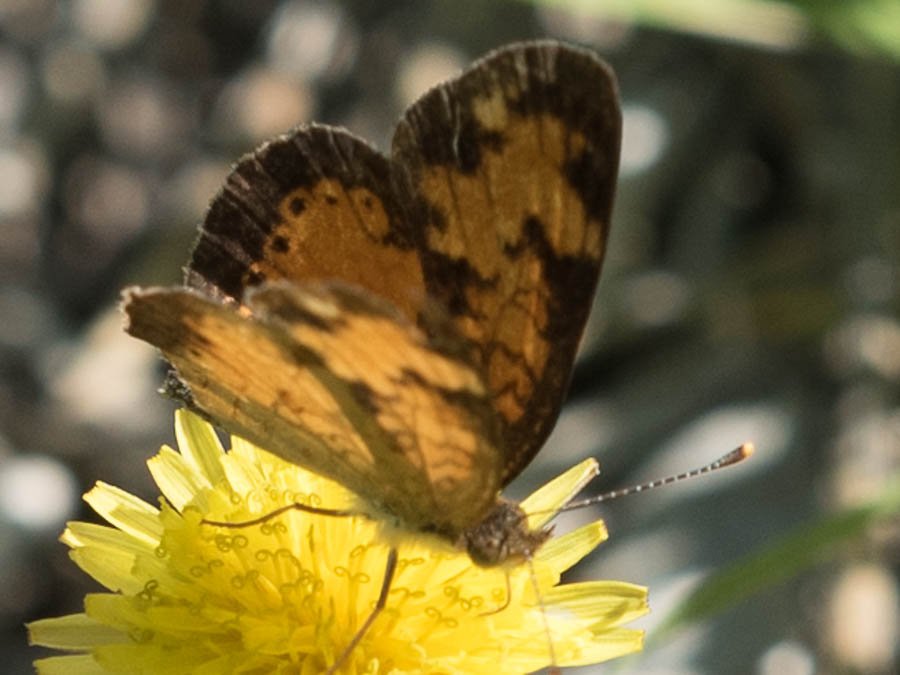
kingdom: Animalia
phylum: Arthropoda
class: Insecta
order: Lepidoptera
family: Nymphalidae
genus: Phyciodes
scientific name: Phyciodes tharos
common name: Northern Crescent
